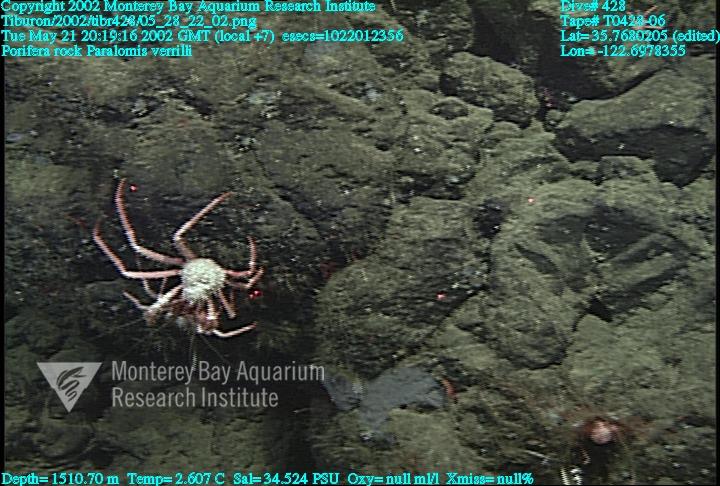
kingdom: Animalia
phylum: Porifera
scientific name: Porifera
